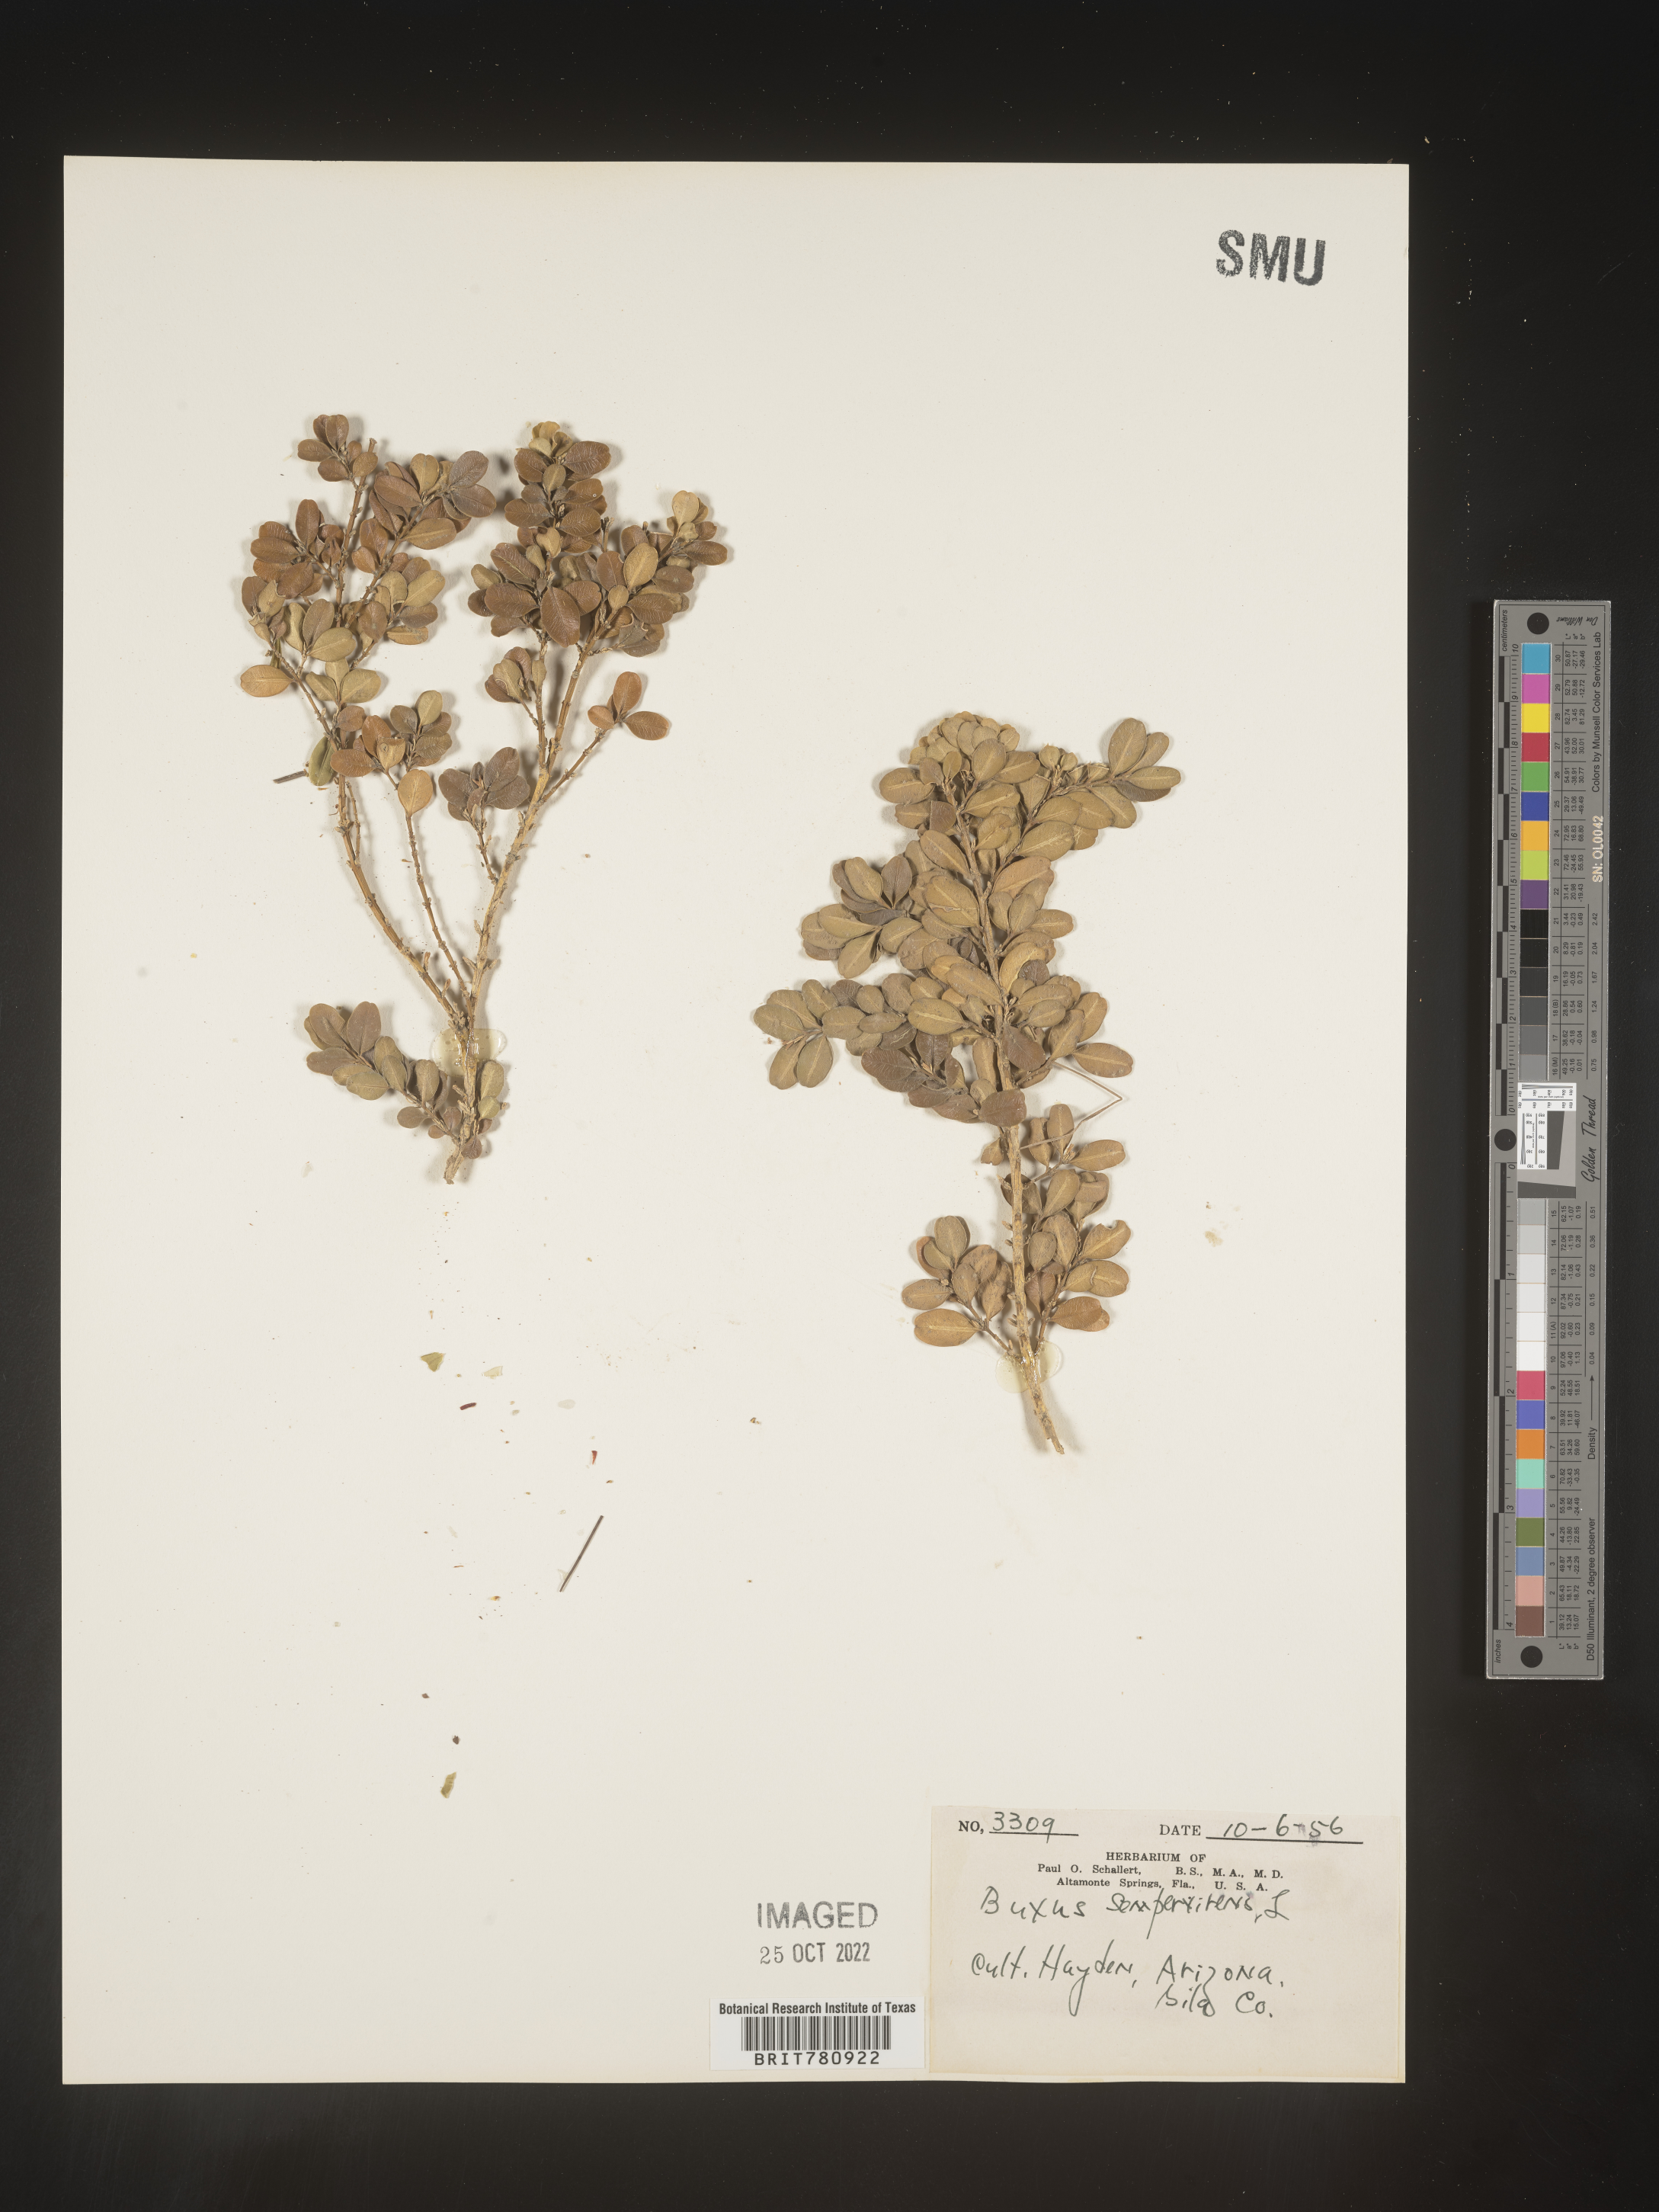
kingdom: Plantae
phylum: Tracheophyta
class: Magnoliopsida
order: Buxales
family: Buxaceae
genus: Buxus
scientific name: Buxus
